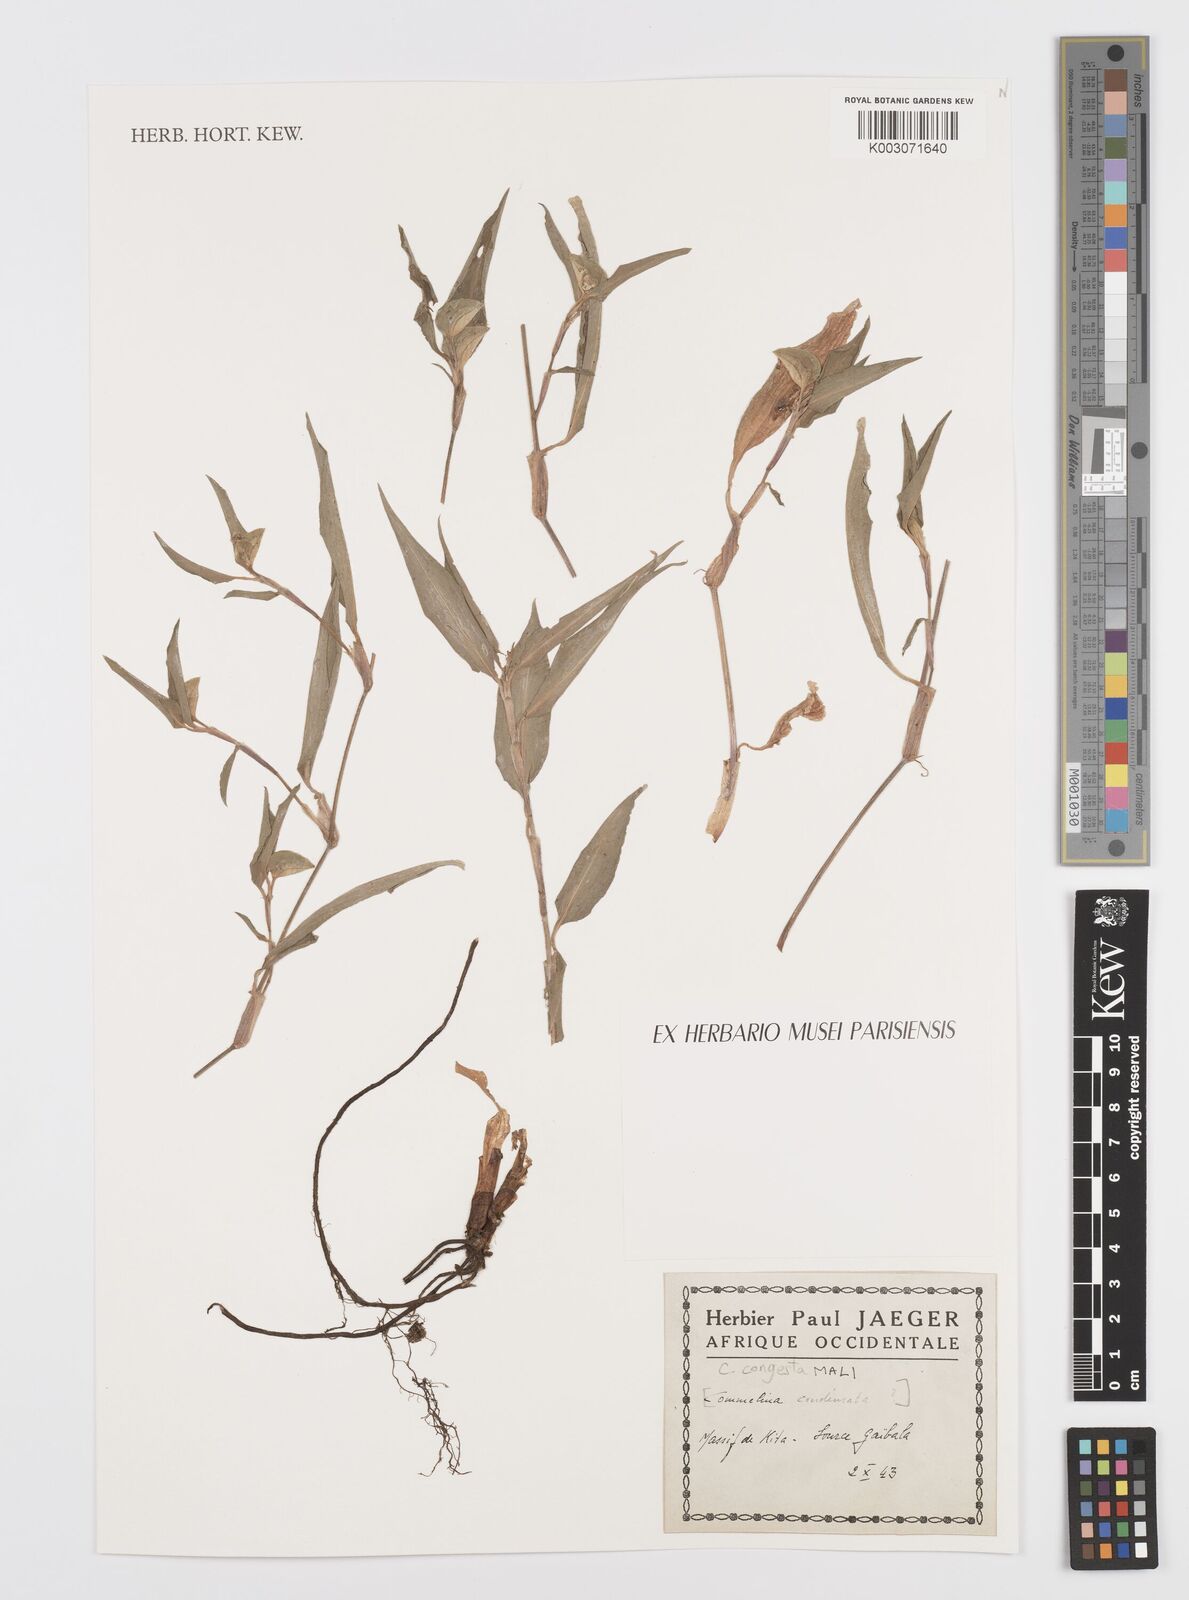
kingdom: Plantae
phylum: Tracheophyta
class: Liliopsida
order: Commelinales
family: Commelinaceae
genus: Commelina
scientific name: Commelina congesta
